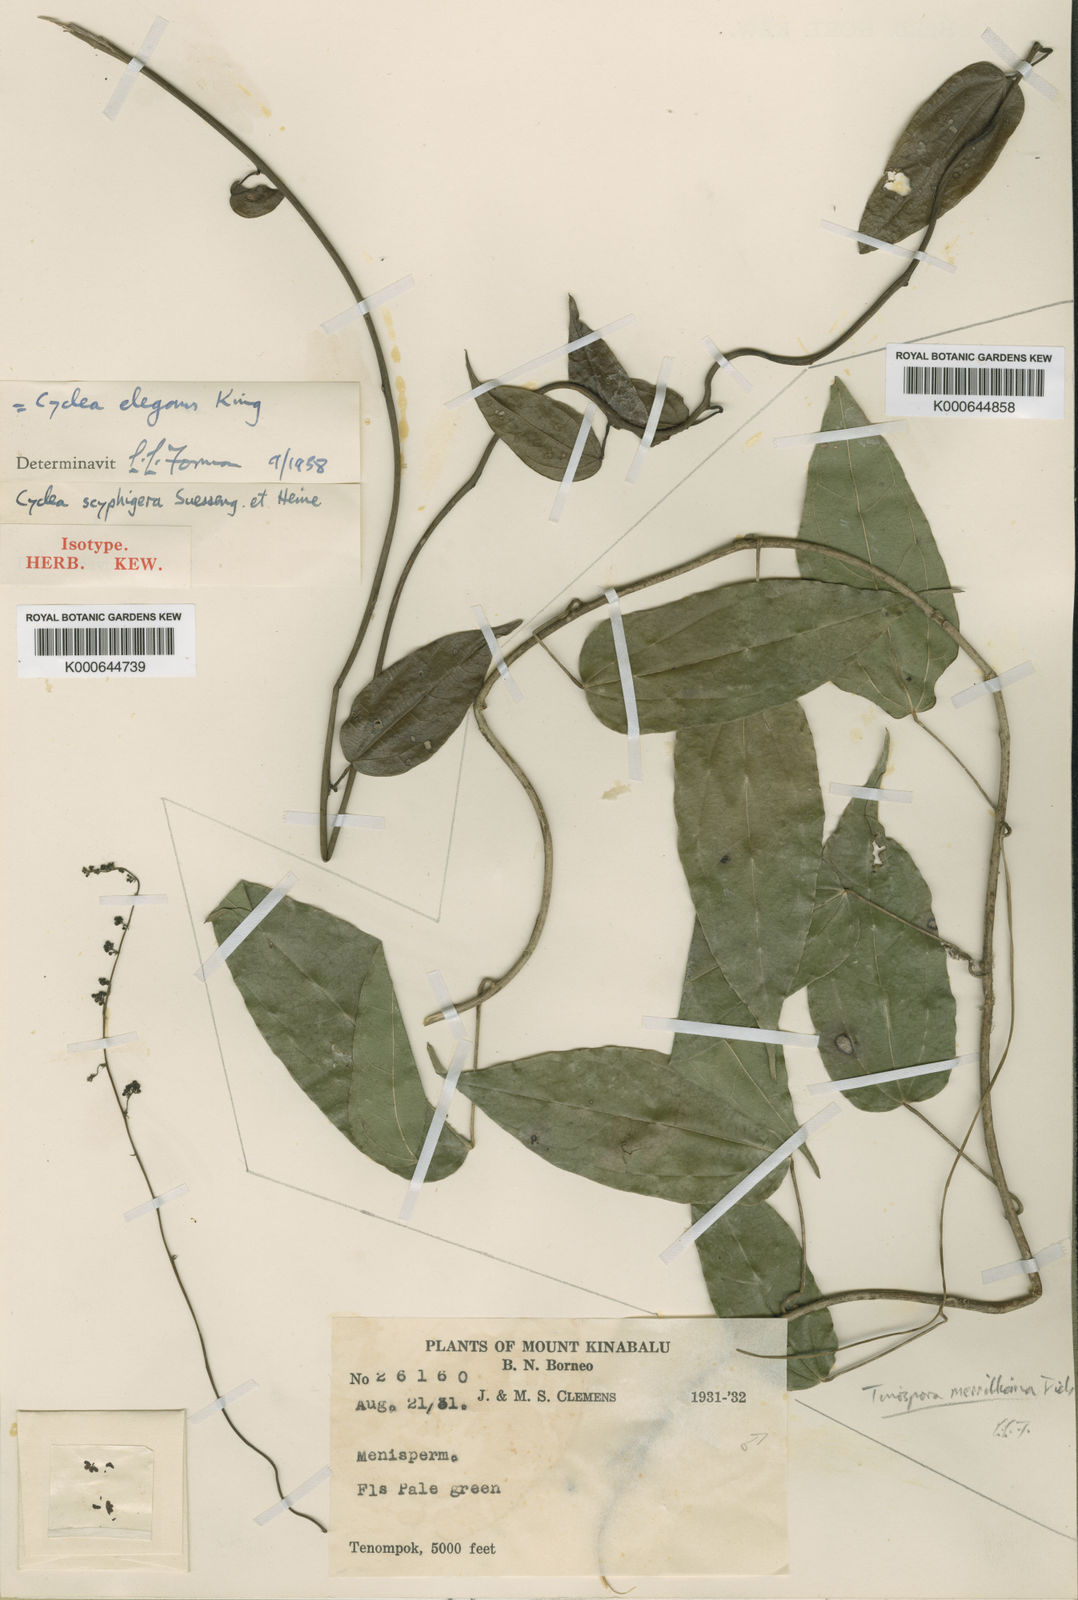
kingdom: Plantae
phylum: Tracheophyta
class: Magnoliopsida
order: Ranunculales
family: Menispermaceae
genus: Cyclea
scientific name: Cyclea elegans
